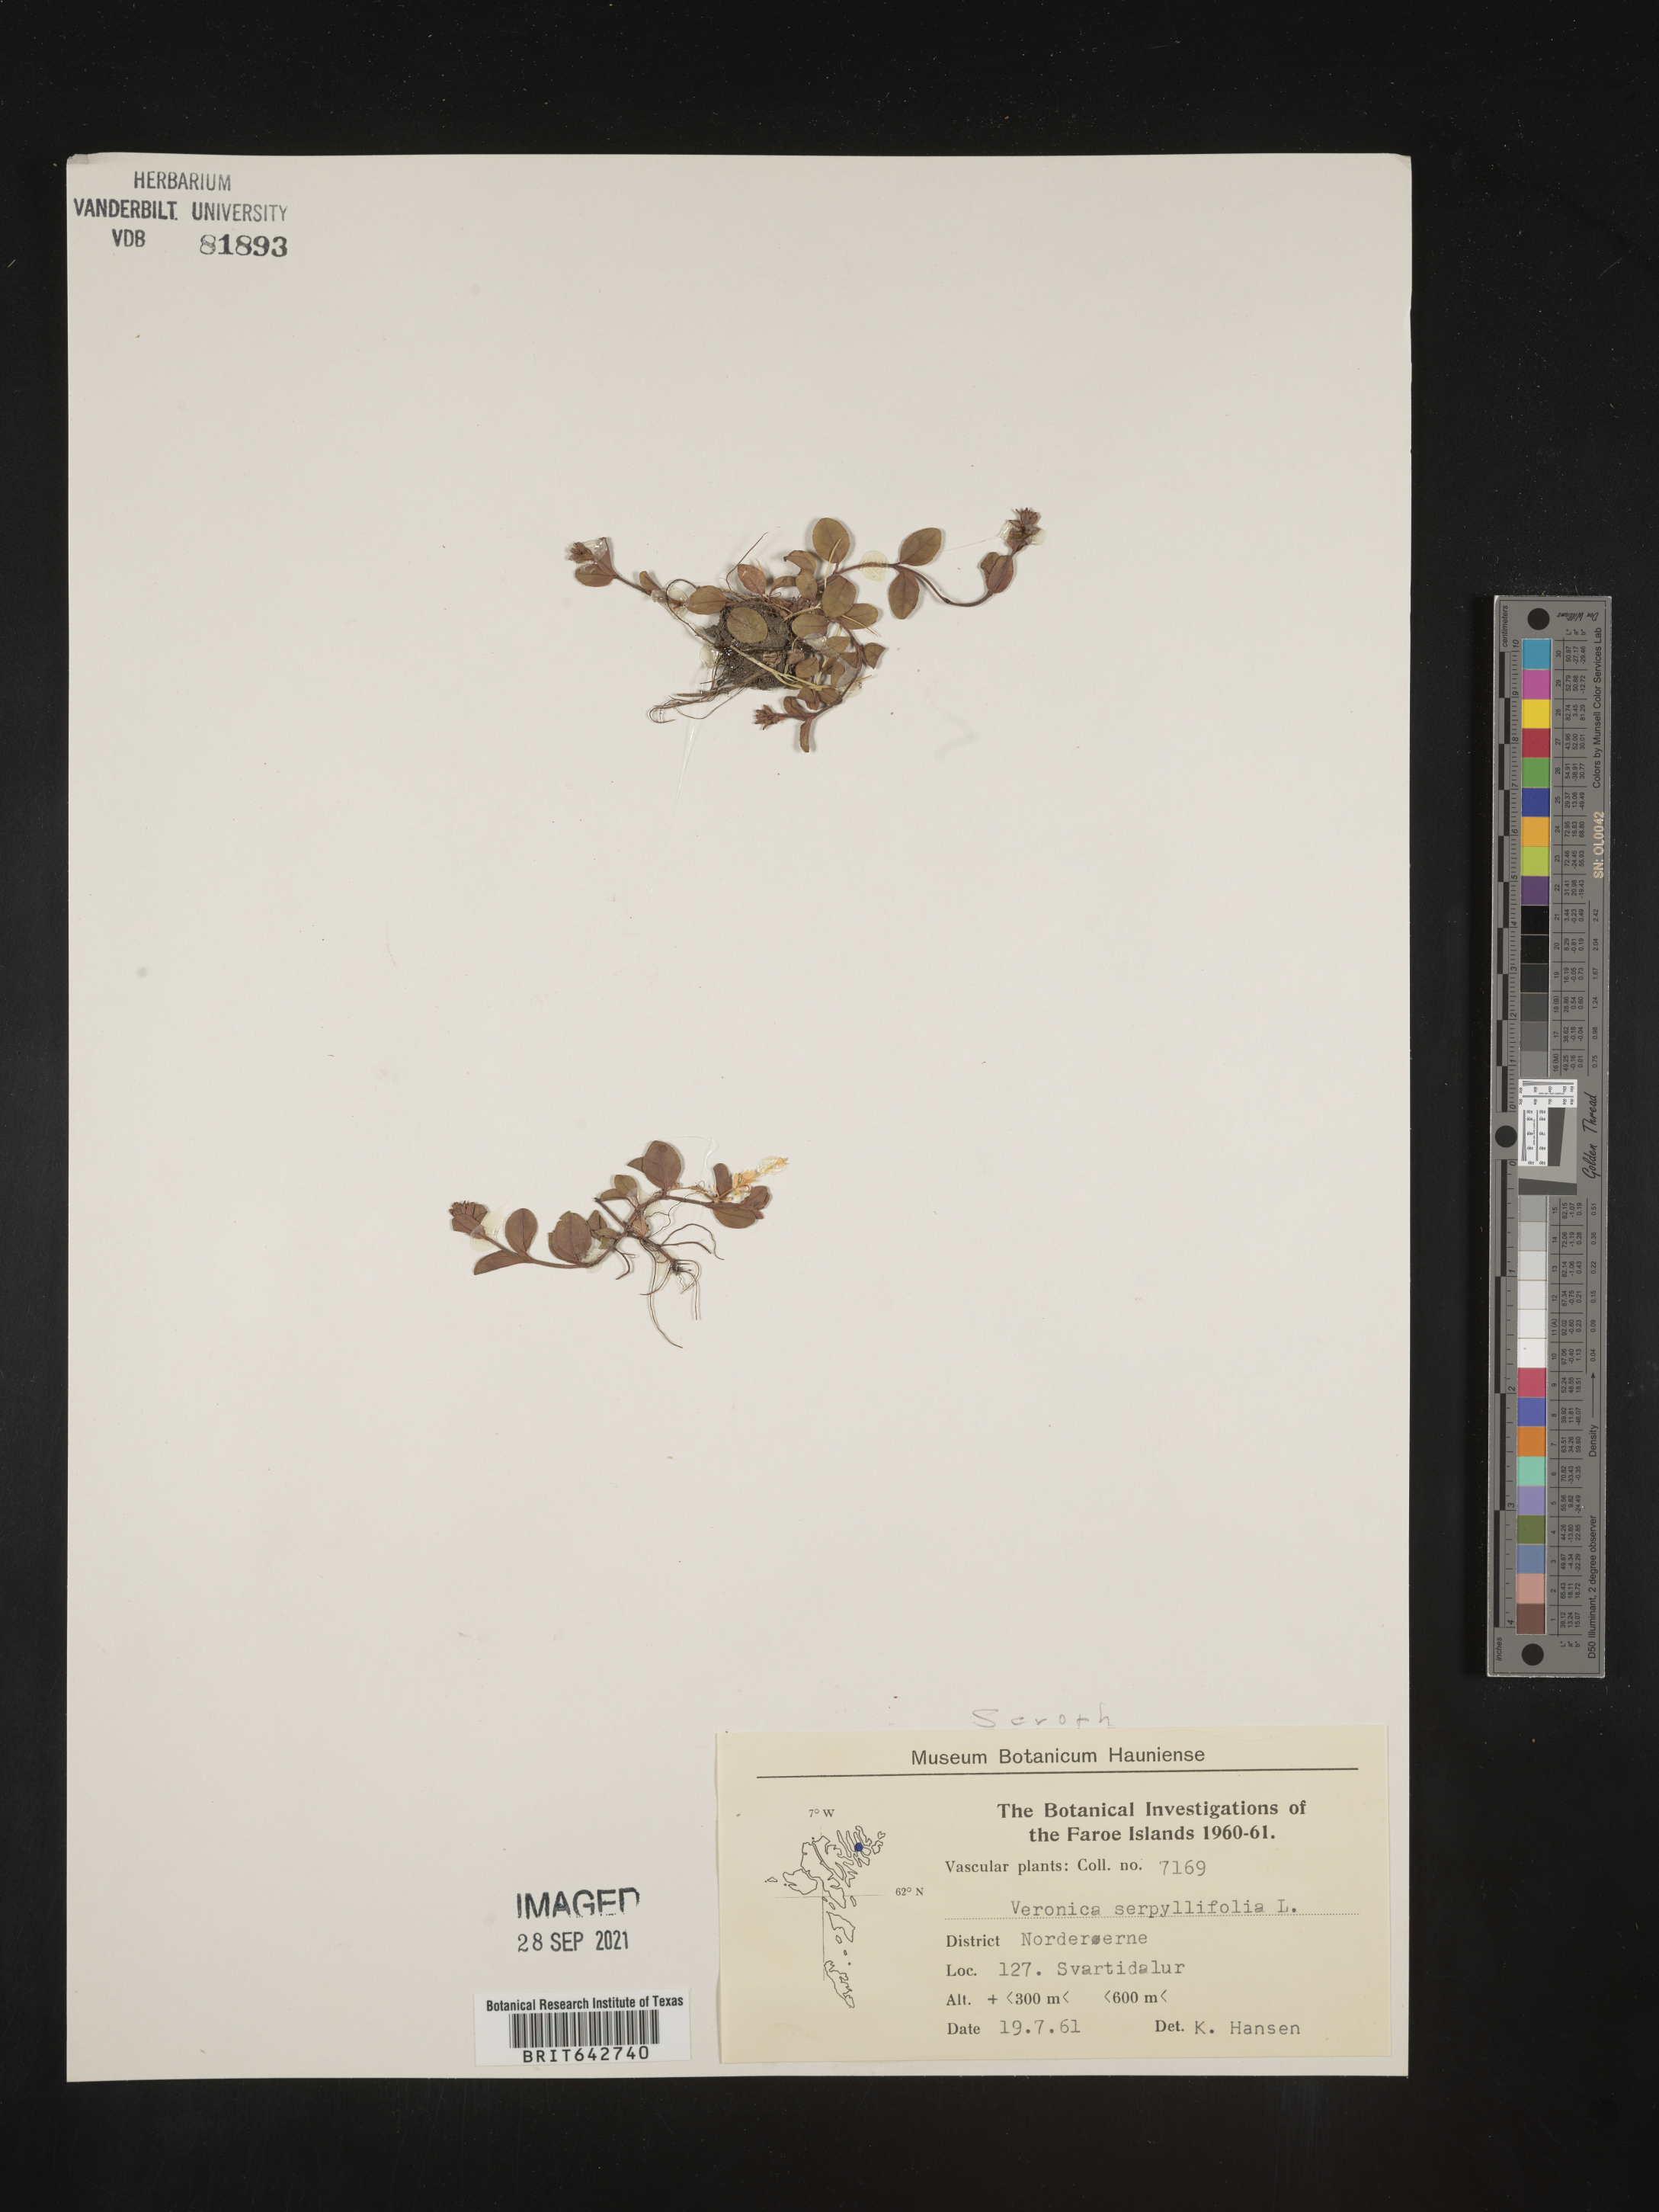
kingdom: Plantae
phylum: Tracheophyta
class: Magnoliopsida
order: Lamiales
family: Plantaginaceae
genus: Veronica
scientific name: Veronica
